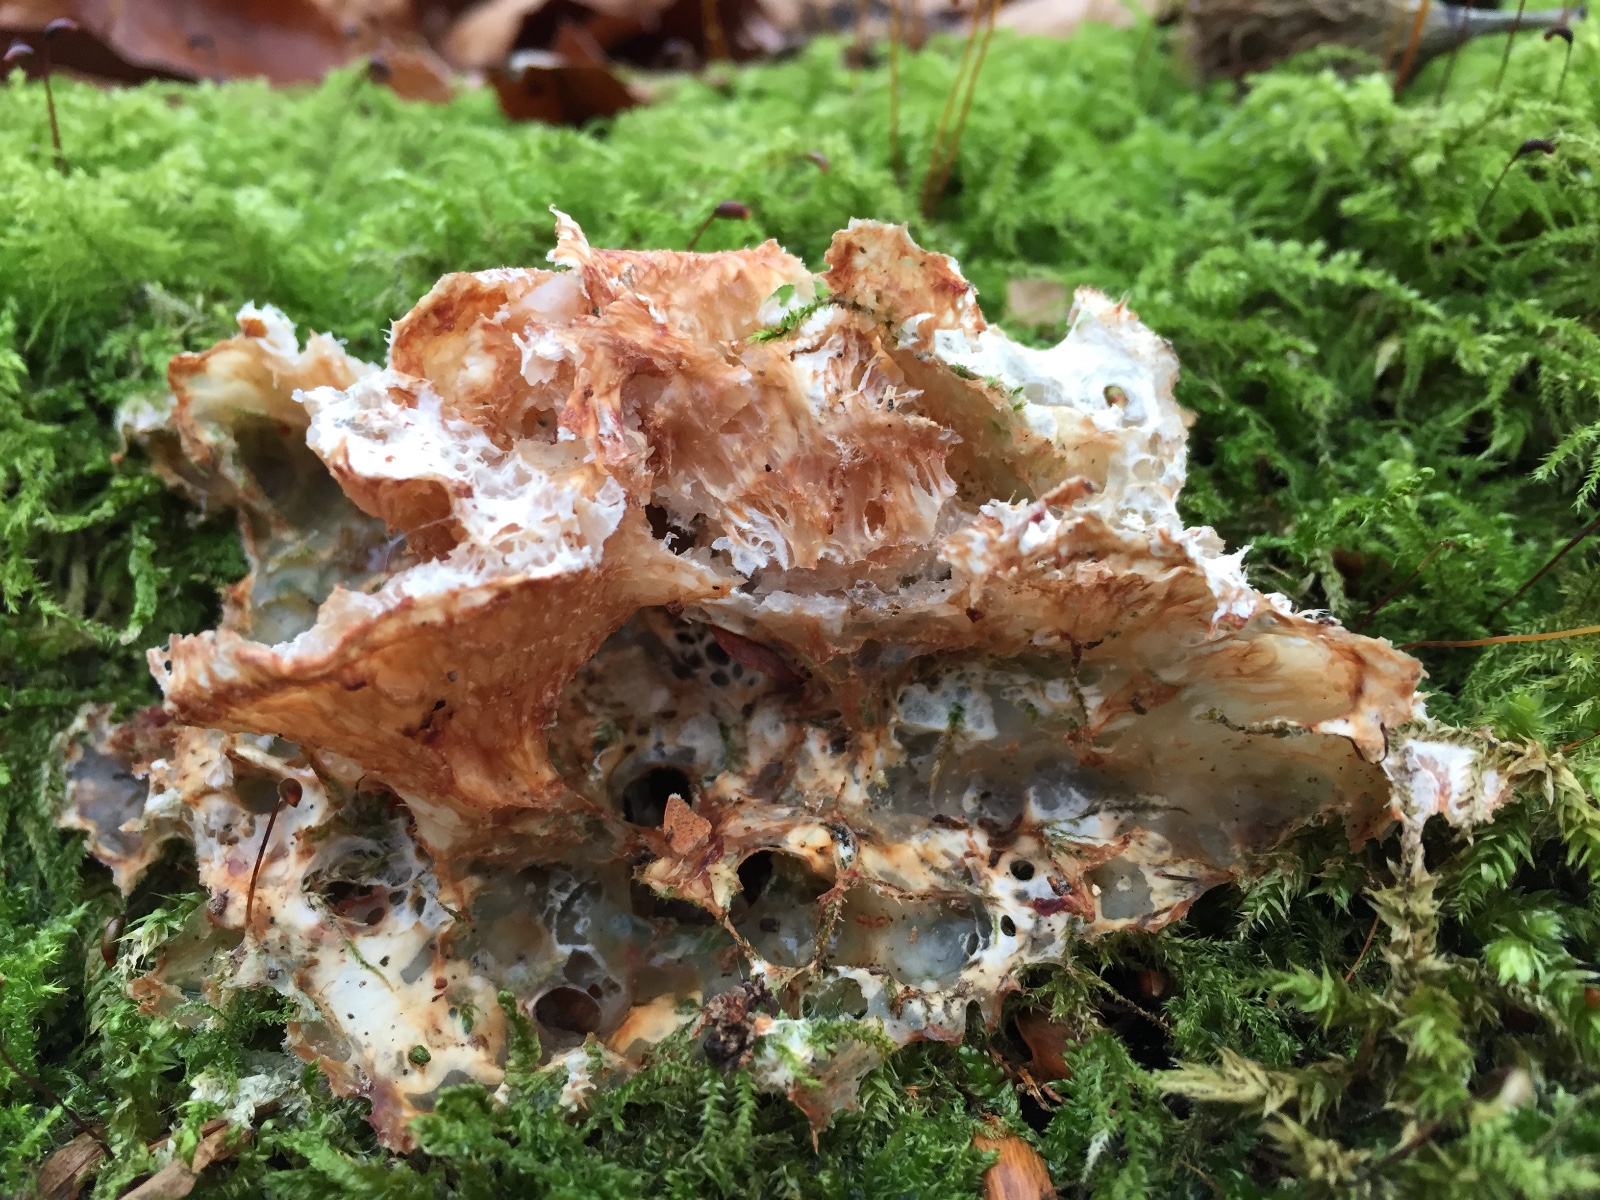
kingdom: Fungi
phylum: Basidiomycota
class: Agaricomycetes
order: Polyporales
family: Meruliaceae
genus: Phlebia
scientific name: Phlebia tremellosa
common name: bævrende åresvamp
